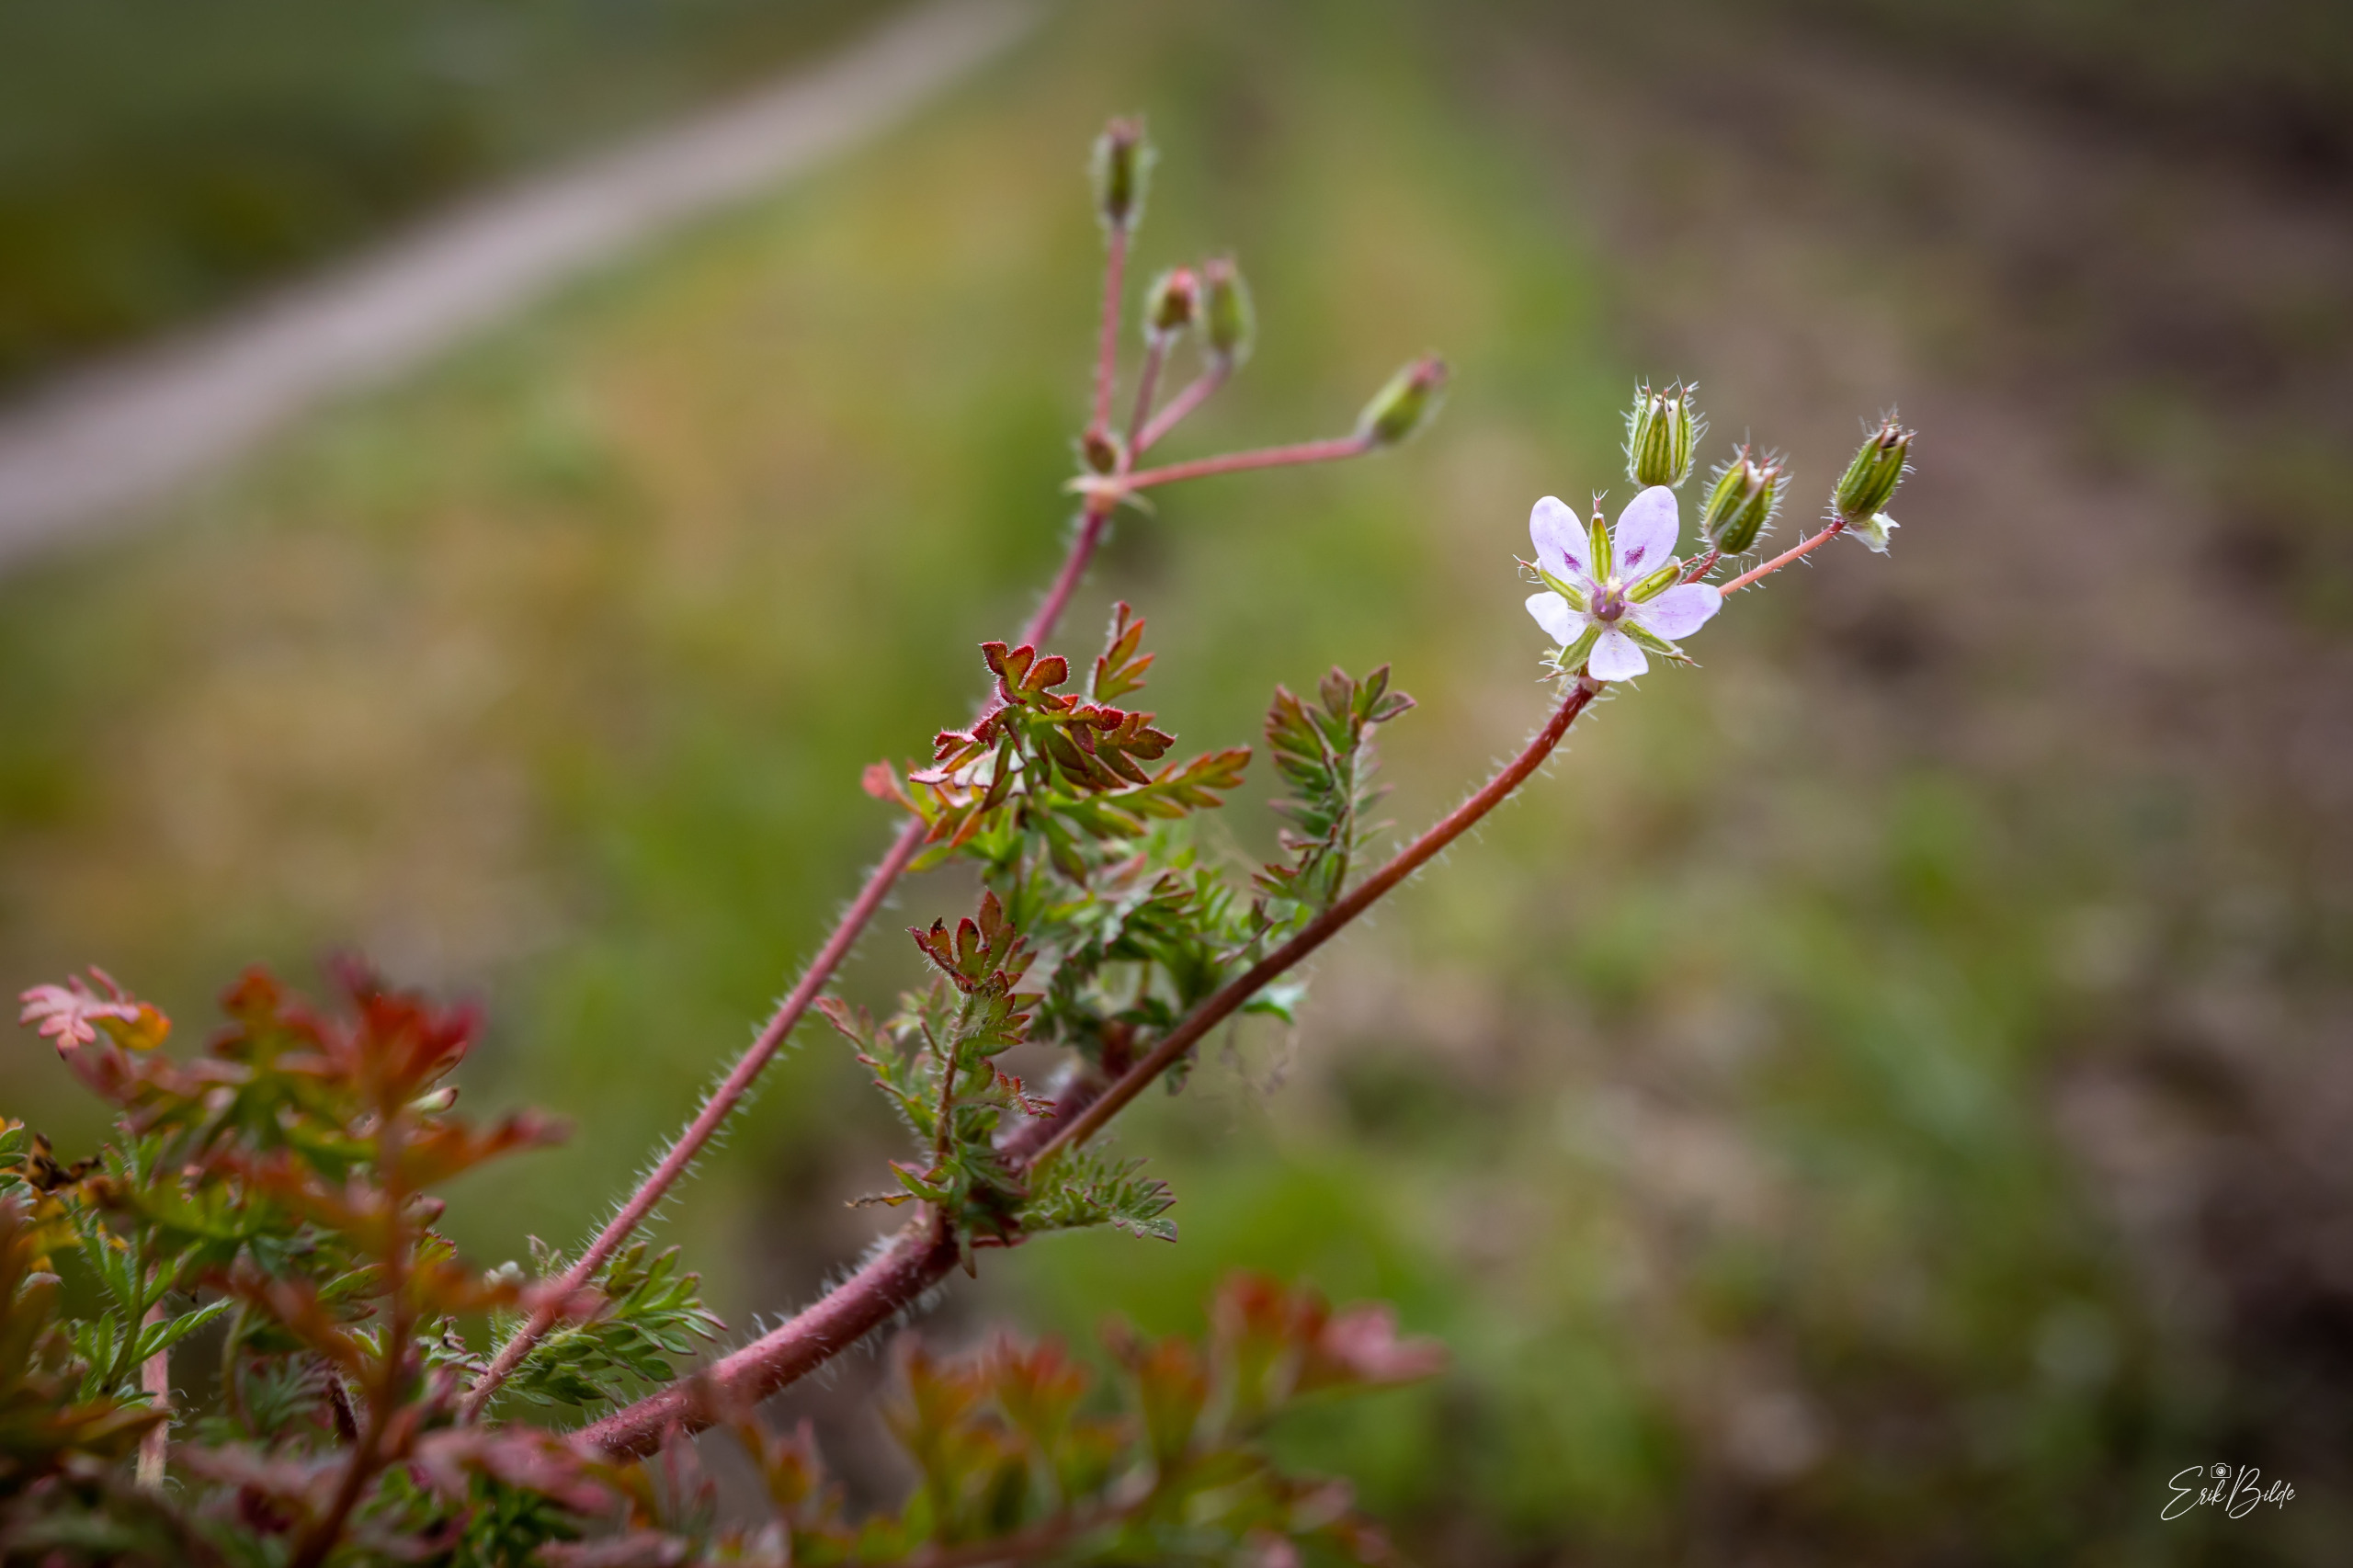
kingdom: Plantae
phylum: Tracheophyta
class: Magnoliopsida
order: Geraniales
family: Geraniaceae
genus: Erodium
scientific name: Erodium cicutarium
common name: Hejrenæb
